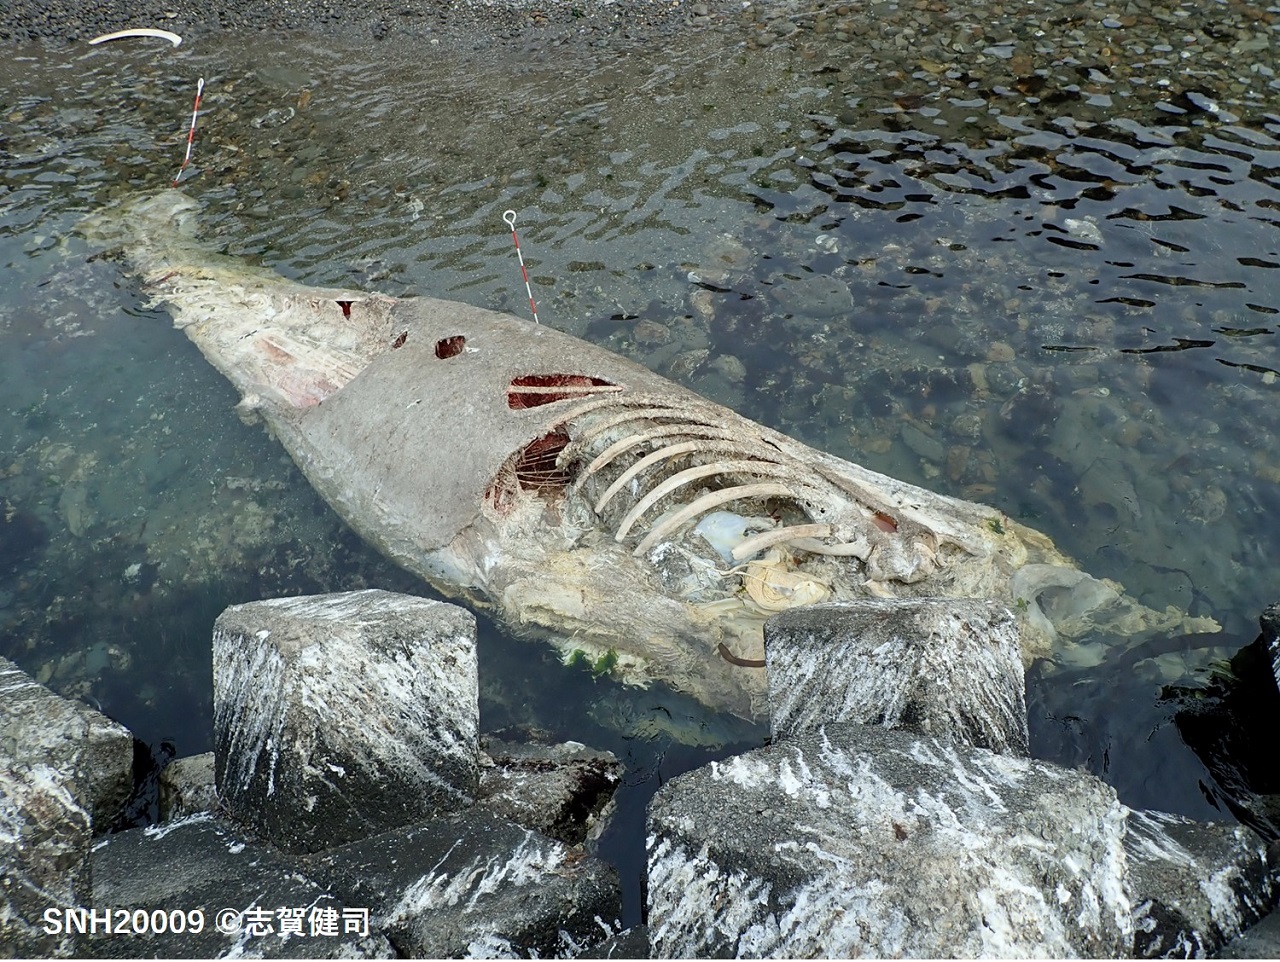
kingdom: Animalia
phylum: Chordata
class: Mammalia
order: Cetacea
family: Balaenopteridae
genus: Balaenoptera
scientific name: Balaenoptera
